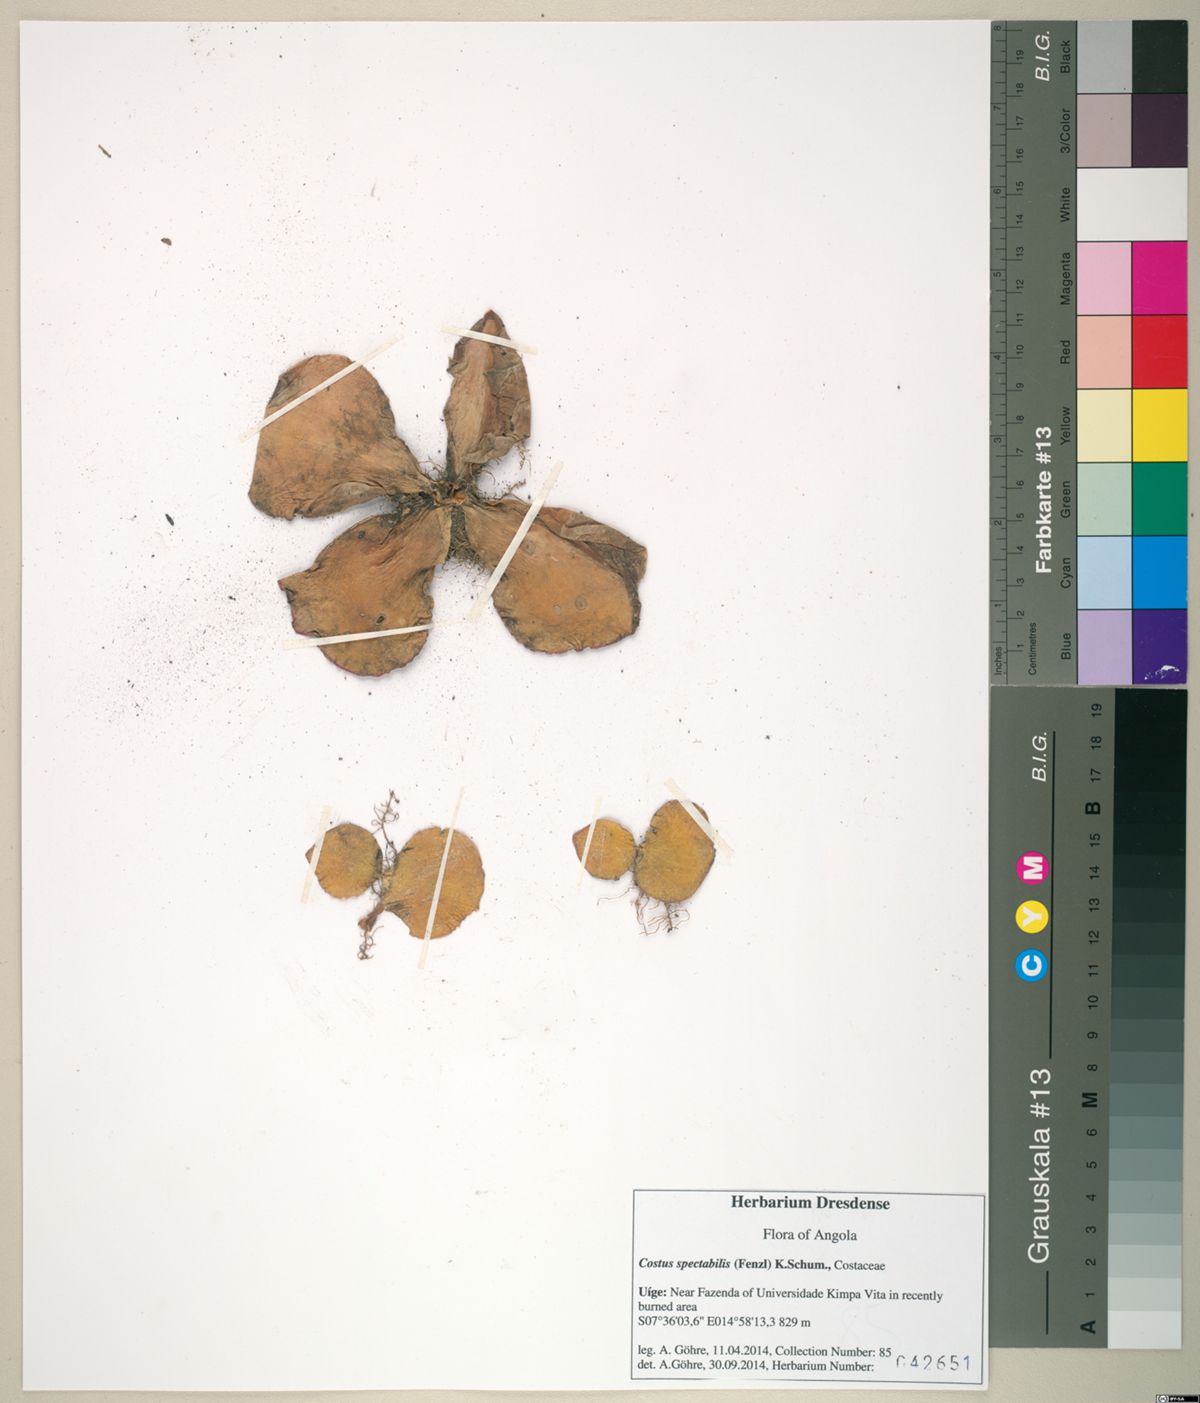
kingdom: Plantae
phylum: Tracheophyta
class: Liliopsida
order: Zingiberales
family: Costaceae
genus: Costus
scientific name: Costus spectabilis
